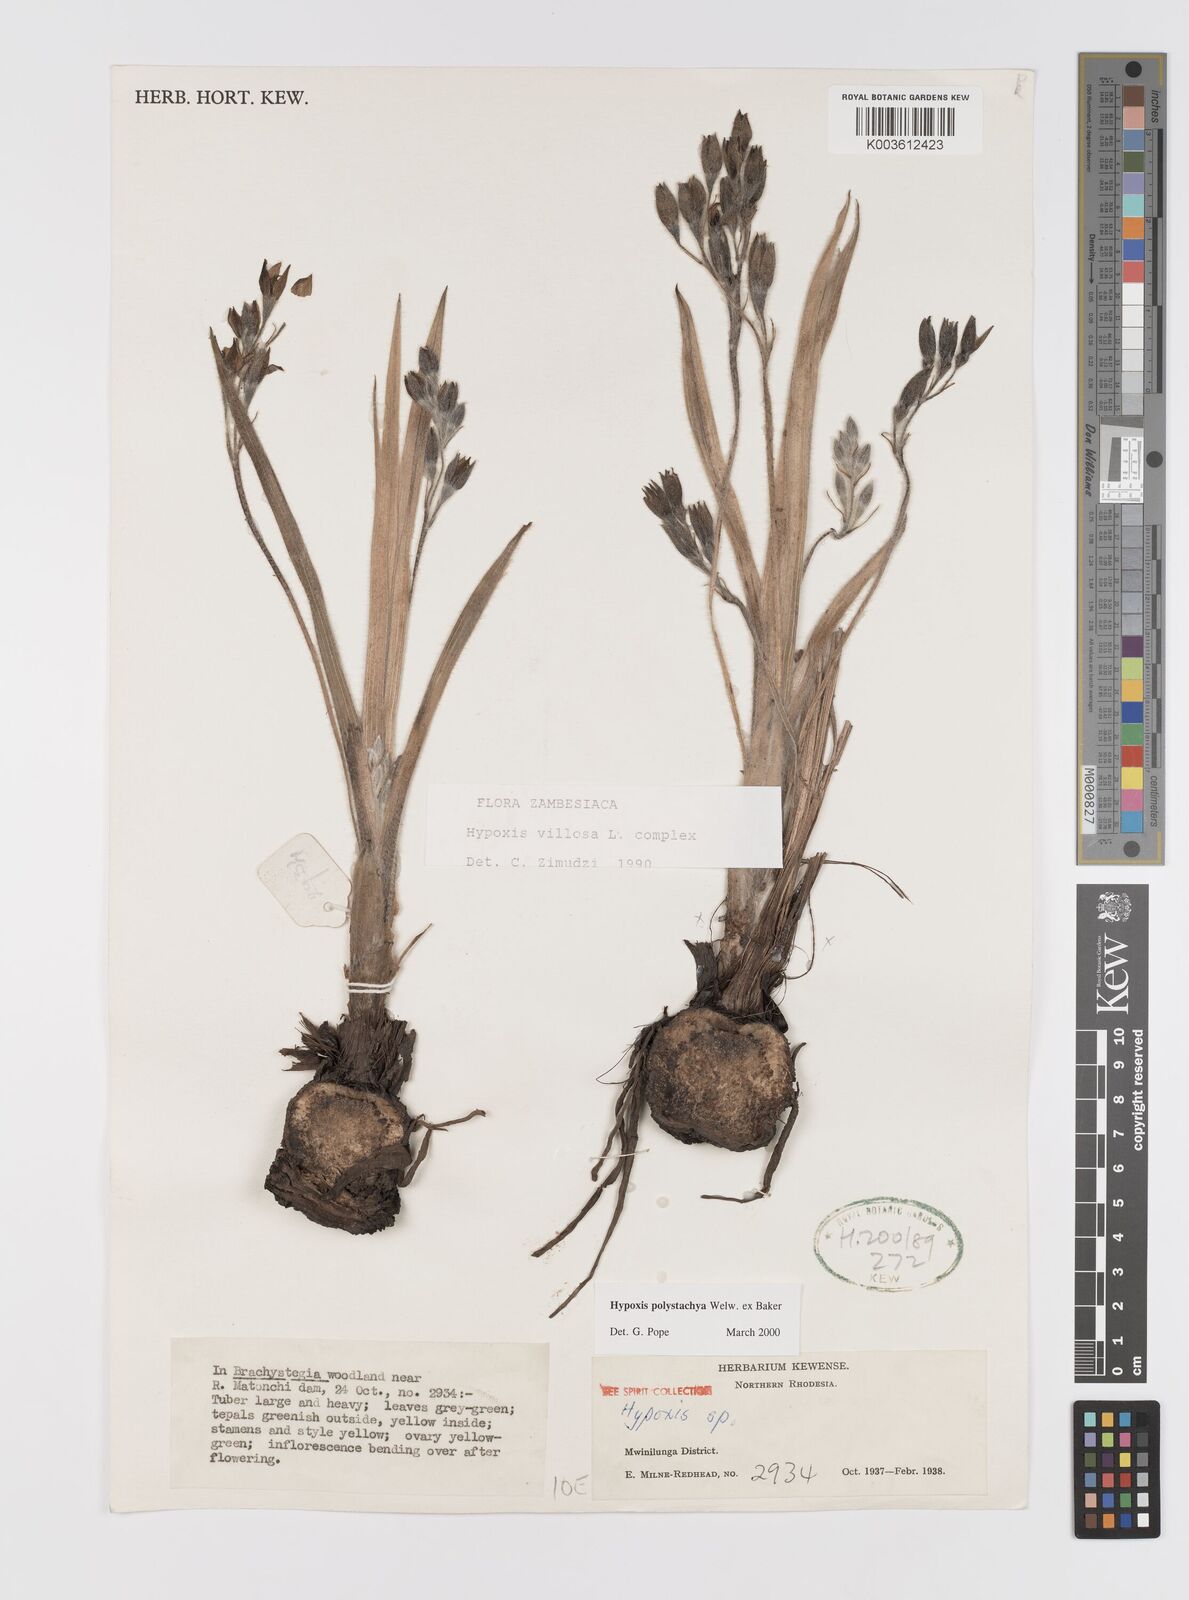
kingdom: Plantae
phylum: Tracheophyta
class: Liliopsida
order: Asparagales
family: Hypoxidaceae
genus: Hypoxis
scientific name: Hypoxis polystachya
